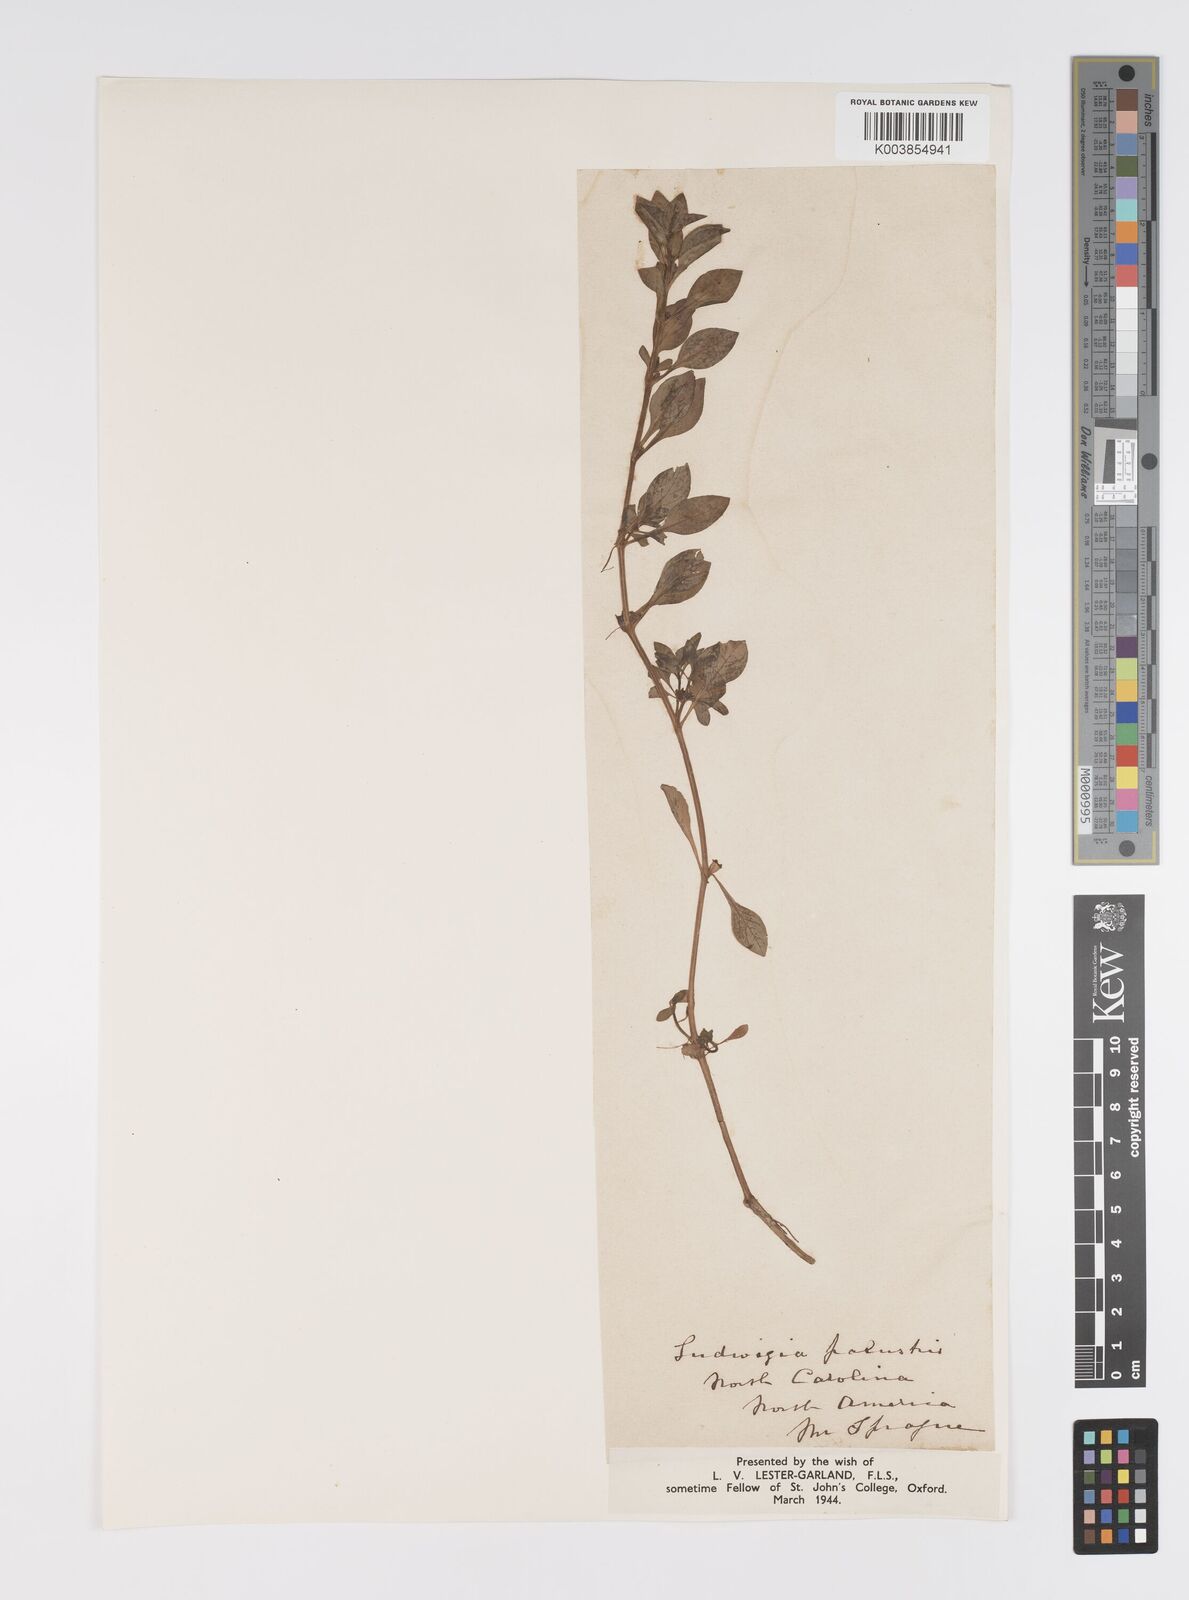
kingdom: Plantae
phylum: Tracheophyta
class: Magnoliopsida
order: Myrtales
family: Onagraceae
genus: Ludwigia
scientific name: Ludwigia palustris
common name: Hampshire-purslane
